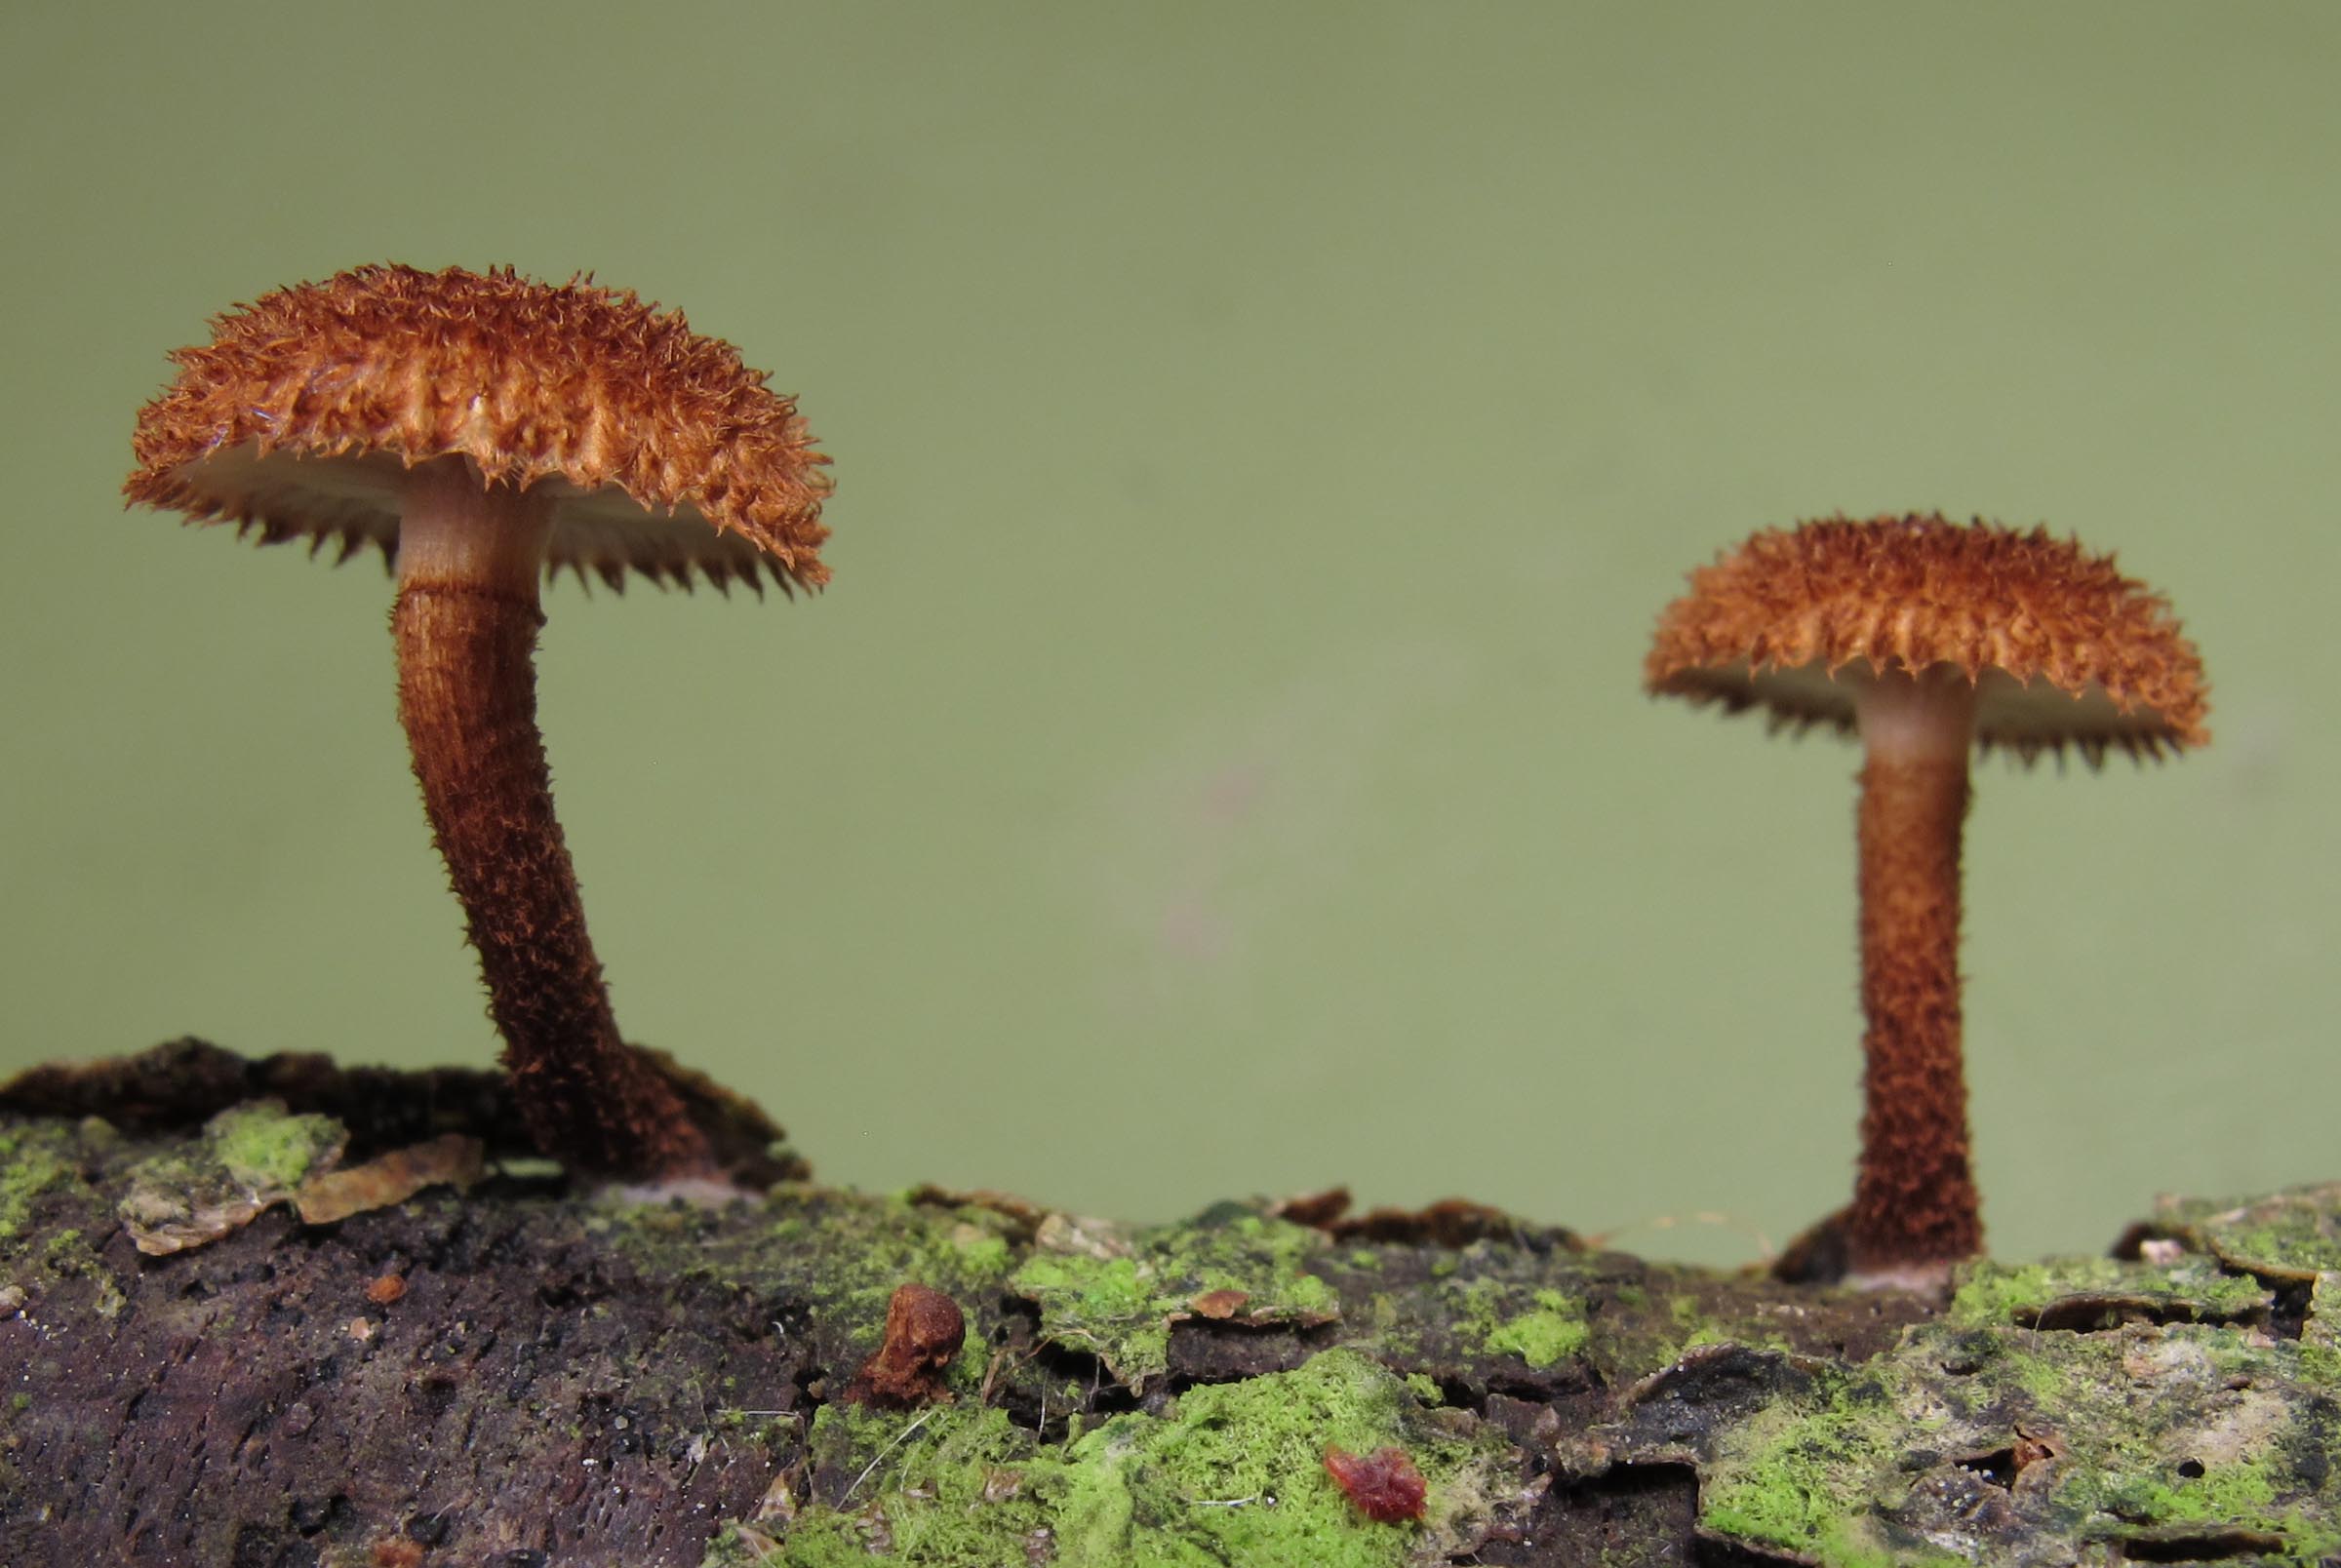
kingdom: Fungi
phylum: Basidiomycota
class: Agaricomycetes
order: Agaricales
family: Tubariaceae
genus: Phaeomarasmius
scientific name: Phaeomarasmius erinaceus
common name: spidsskælhat
